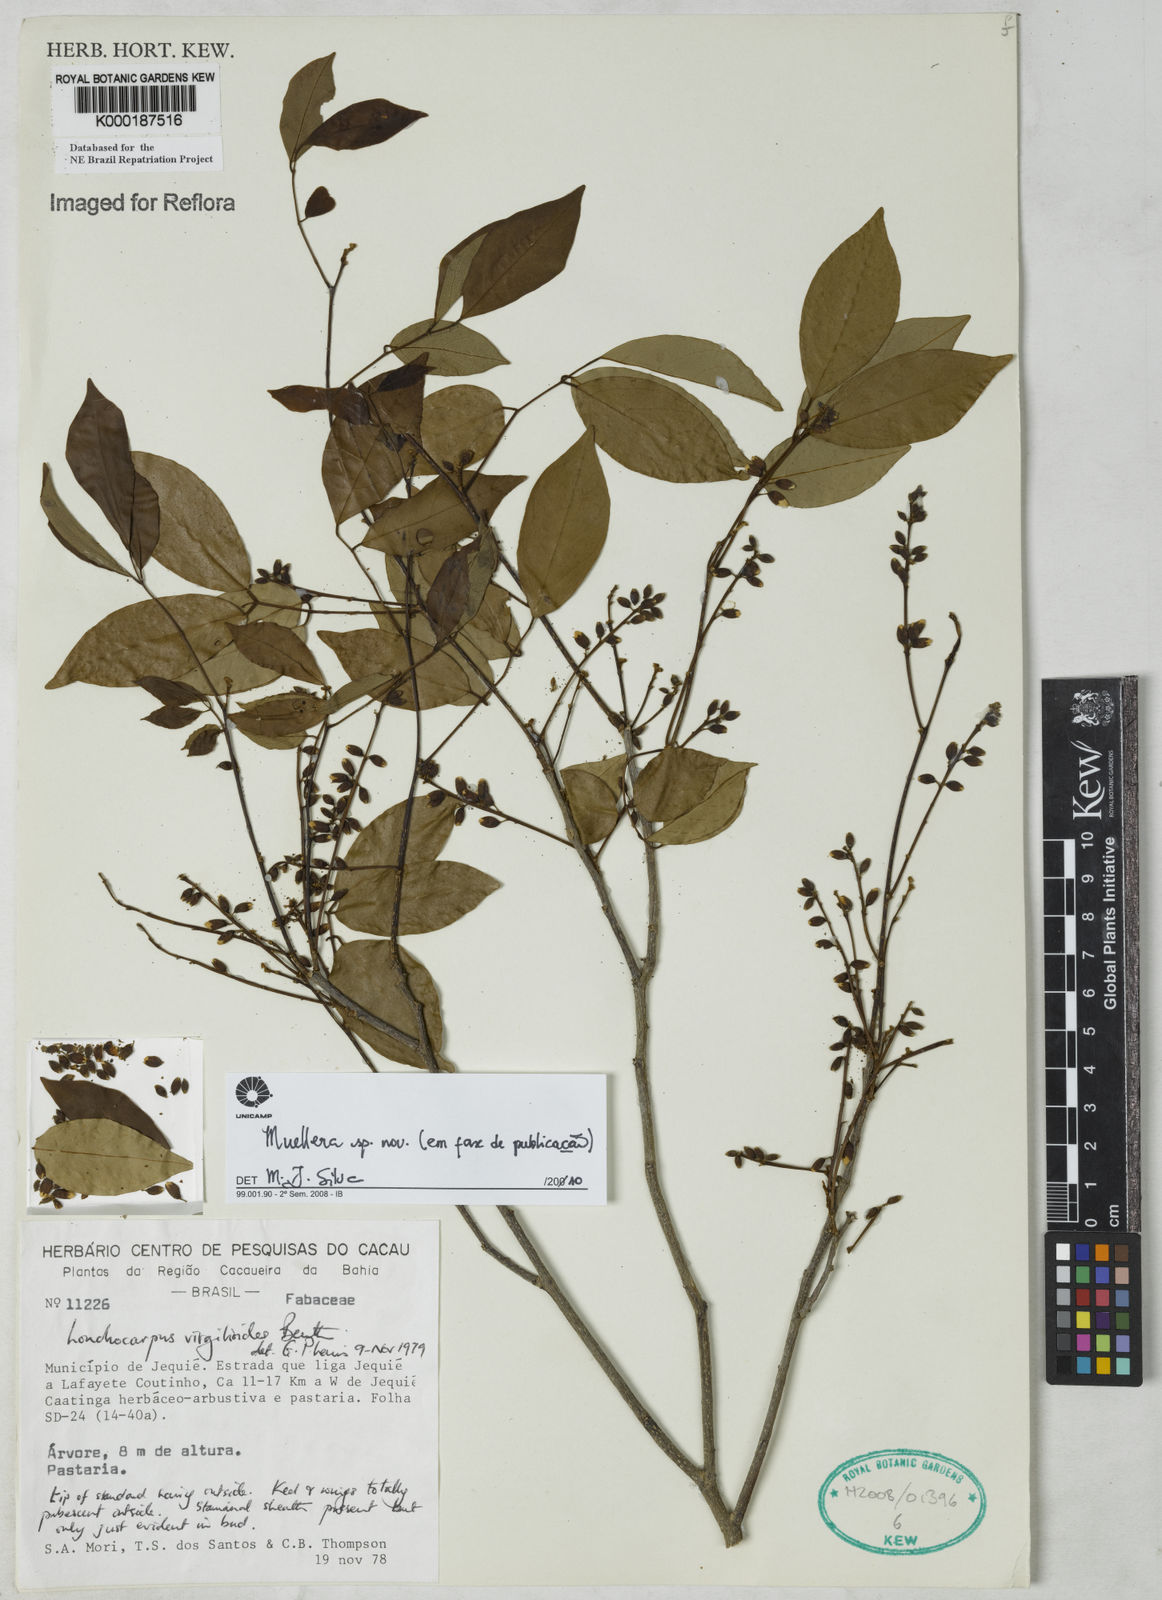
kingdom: Plantae
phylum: Tracheophyta
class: Magnoliopsida
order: Fabales
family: Fabaceae
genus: Muellera
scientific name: Muellera leptobotrys
